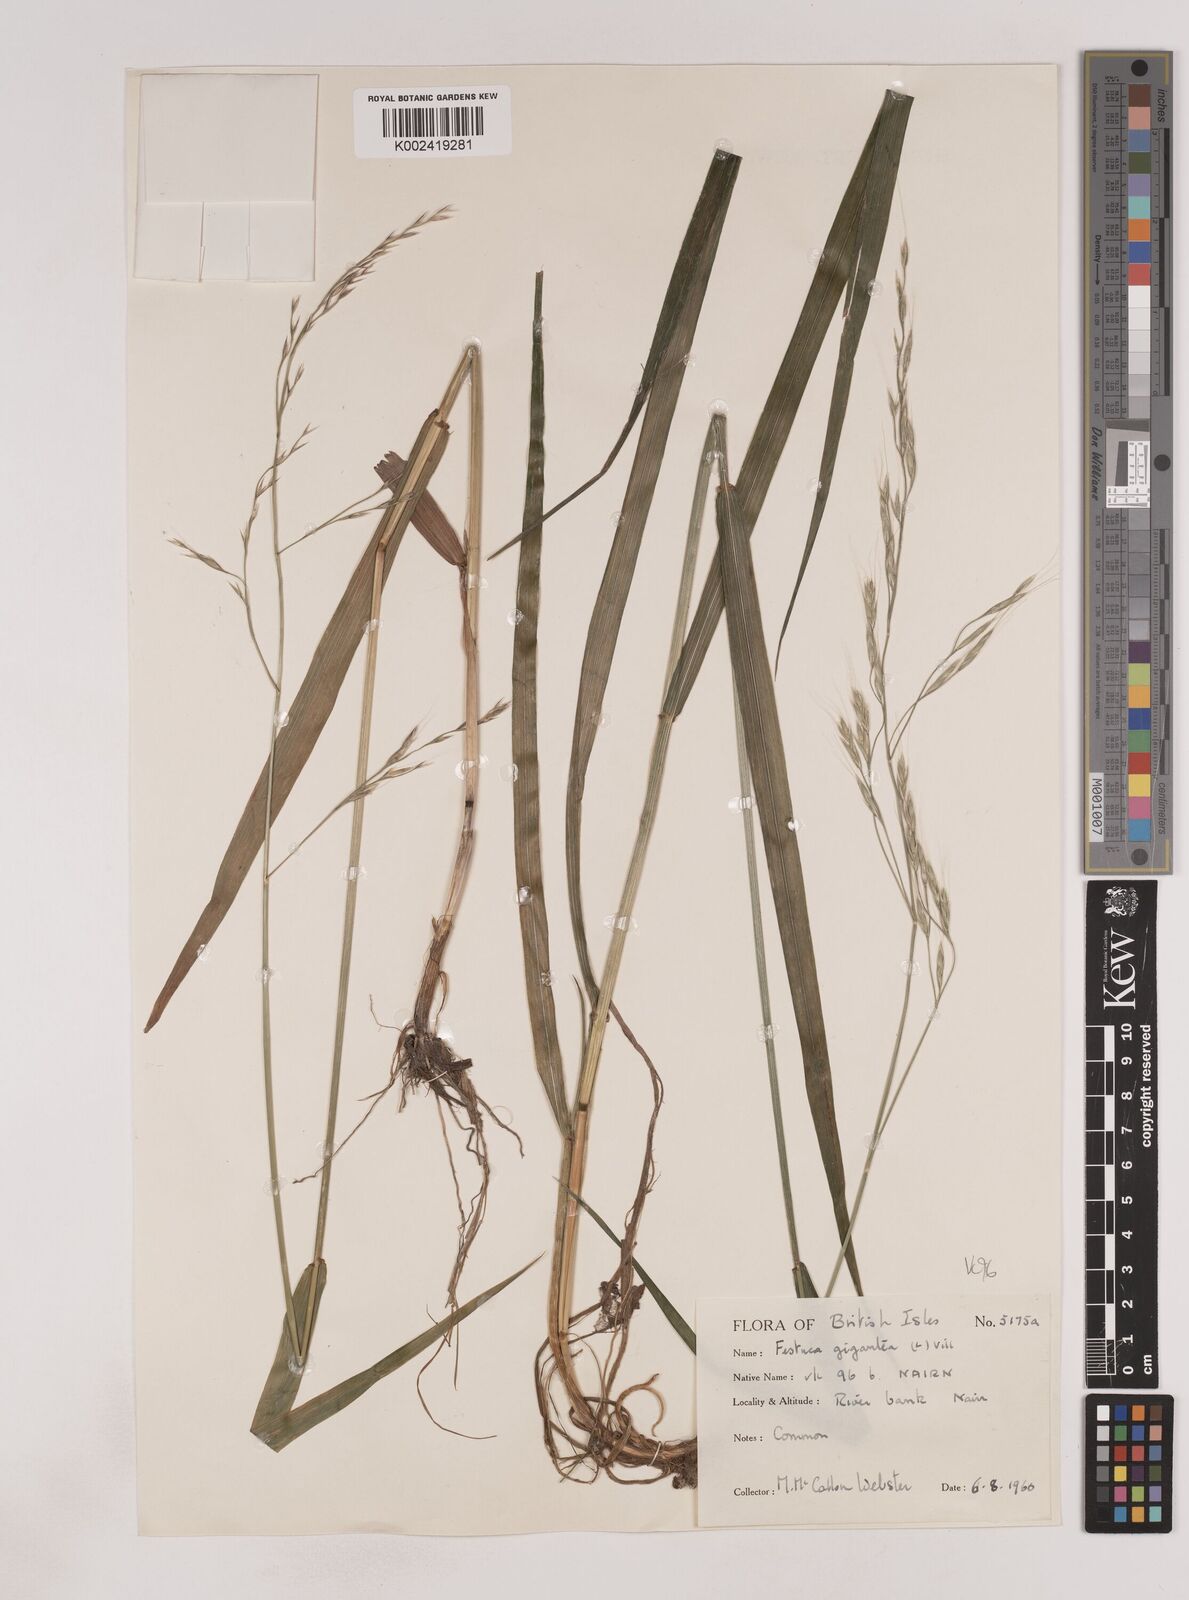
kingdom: Plantae
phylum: Tracheophyta
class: Liliopsida
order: Poales
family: Poaceae
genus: Lolium
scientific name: Lolium giganteum
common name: Giant fescue
